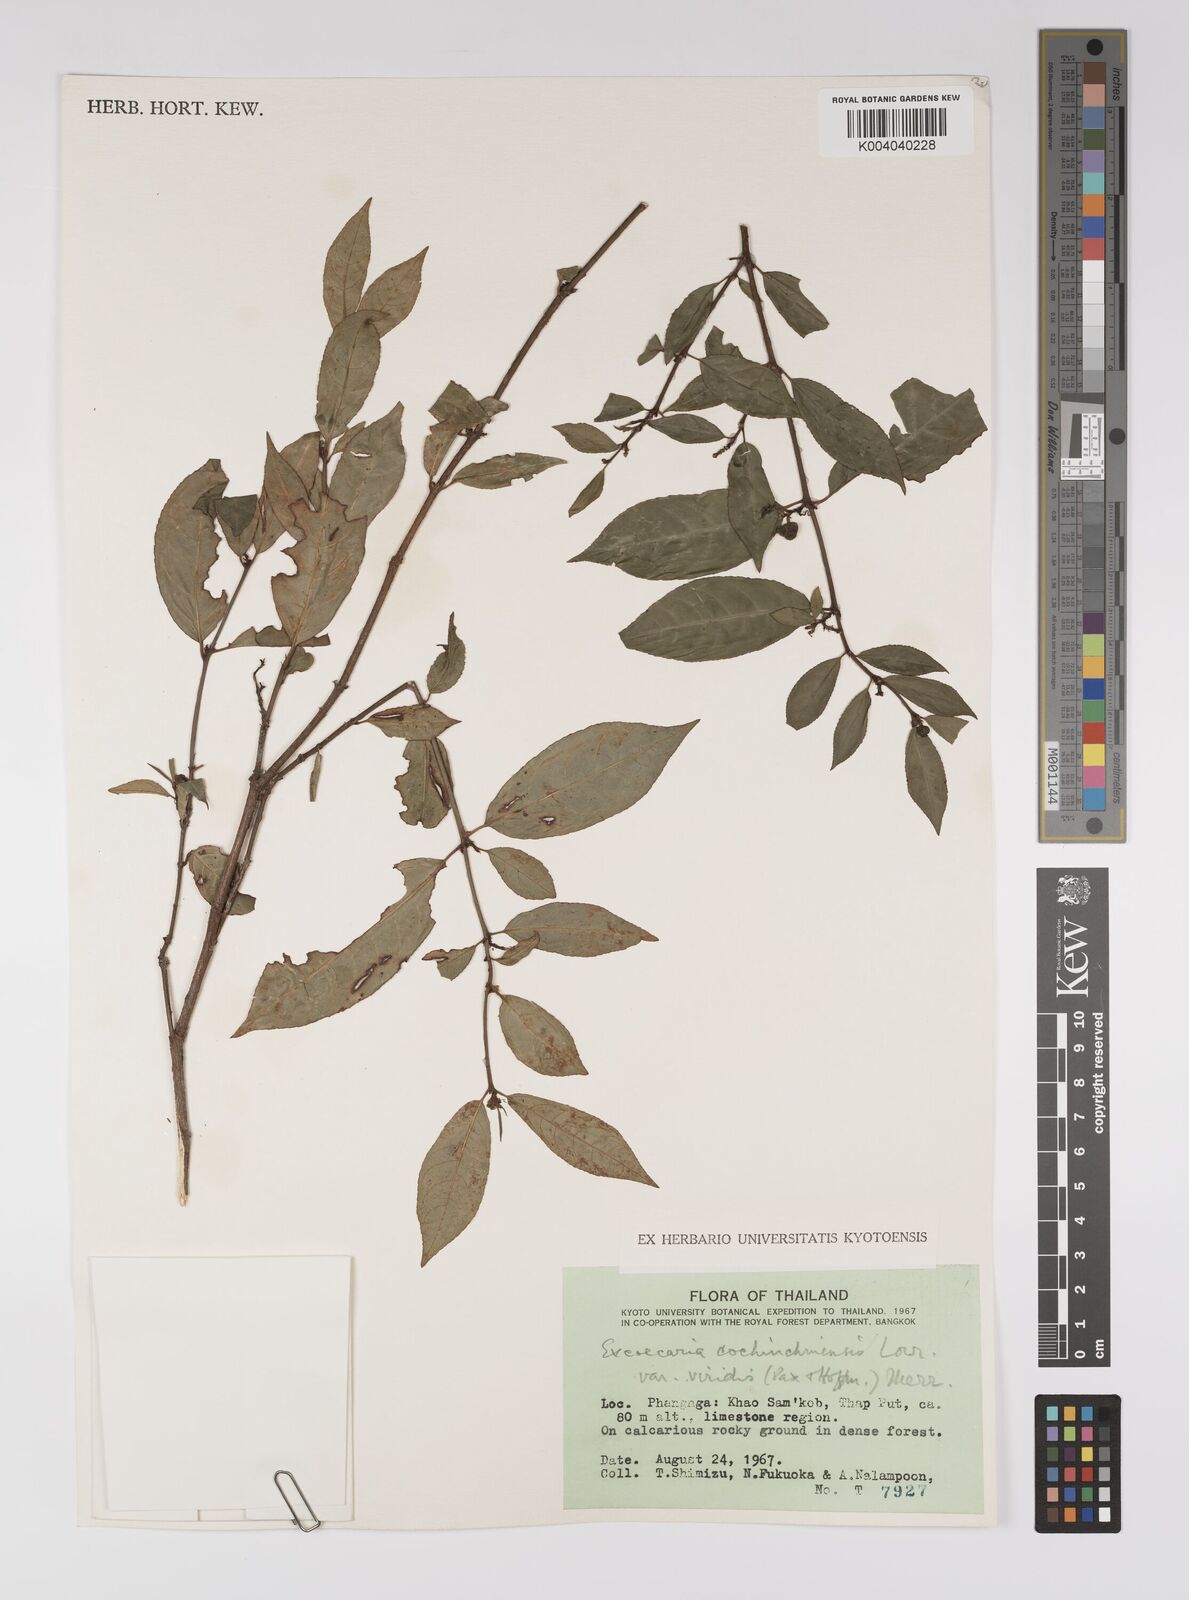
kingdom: Plantae
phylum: Tracheophyta
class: Magnoliopsida
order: Malpighiales
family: Euphorbiaceae
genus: Excoecaria
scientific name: Excoecaria cochinchinensis
